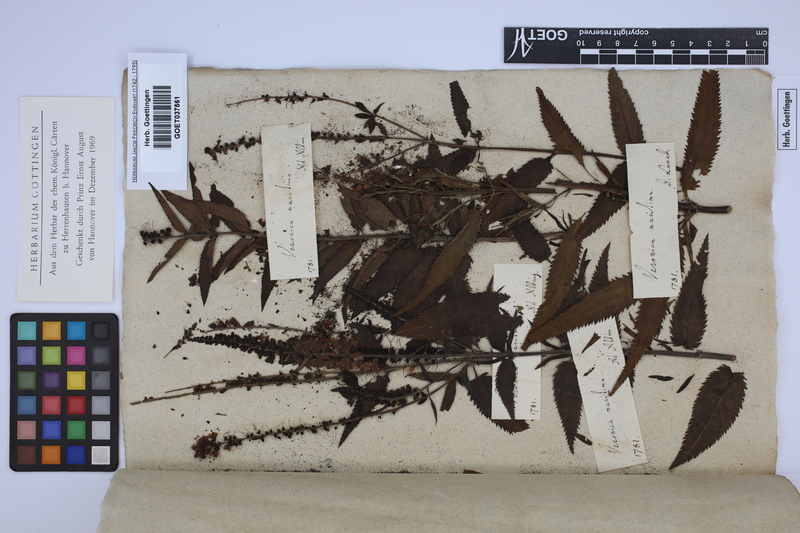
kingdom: Plantae
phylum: Tracheophyta
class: Magnoliopsida
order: Lamiales
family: Plantaginaceae
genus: Veronica
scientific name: Veronica maritima
